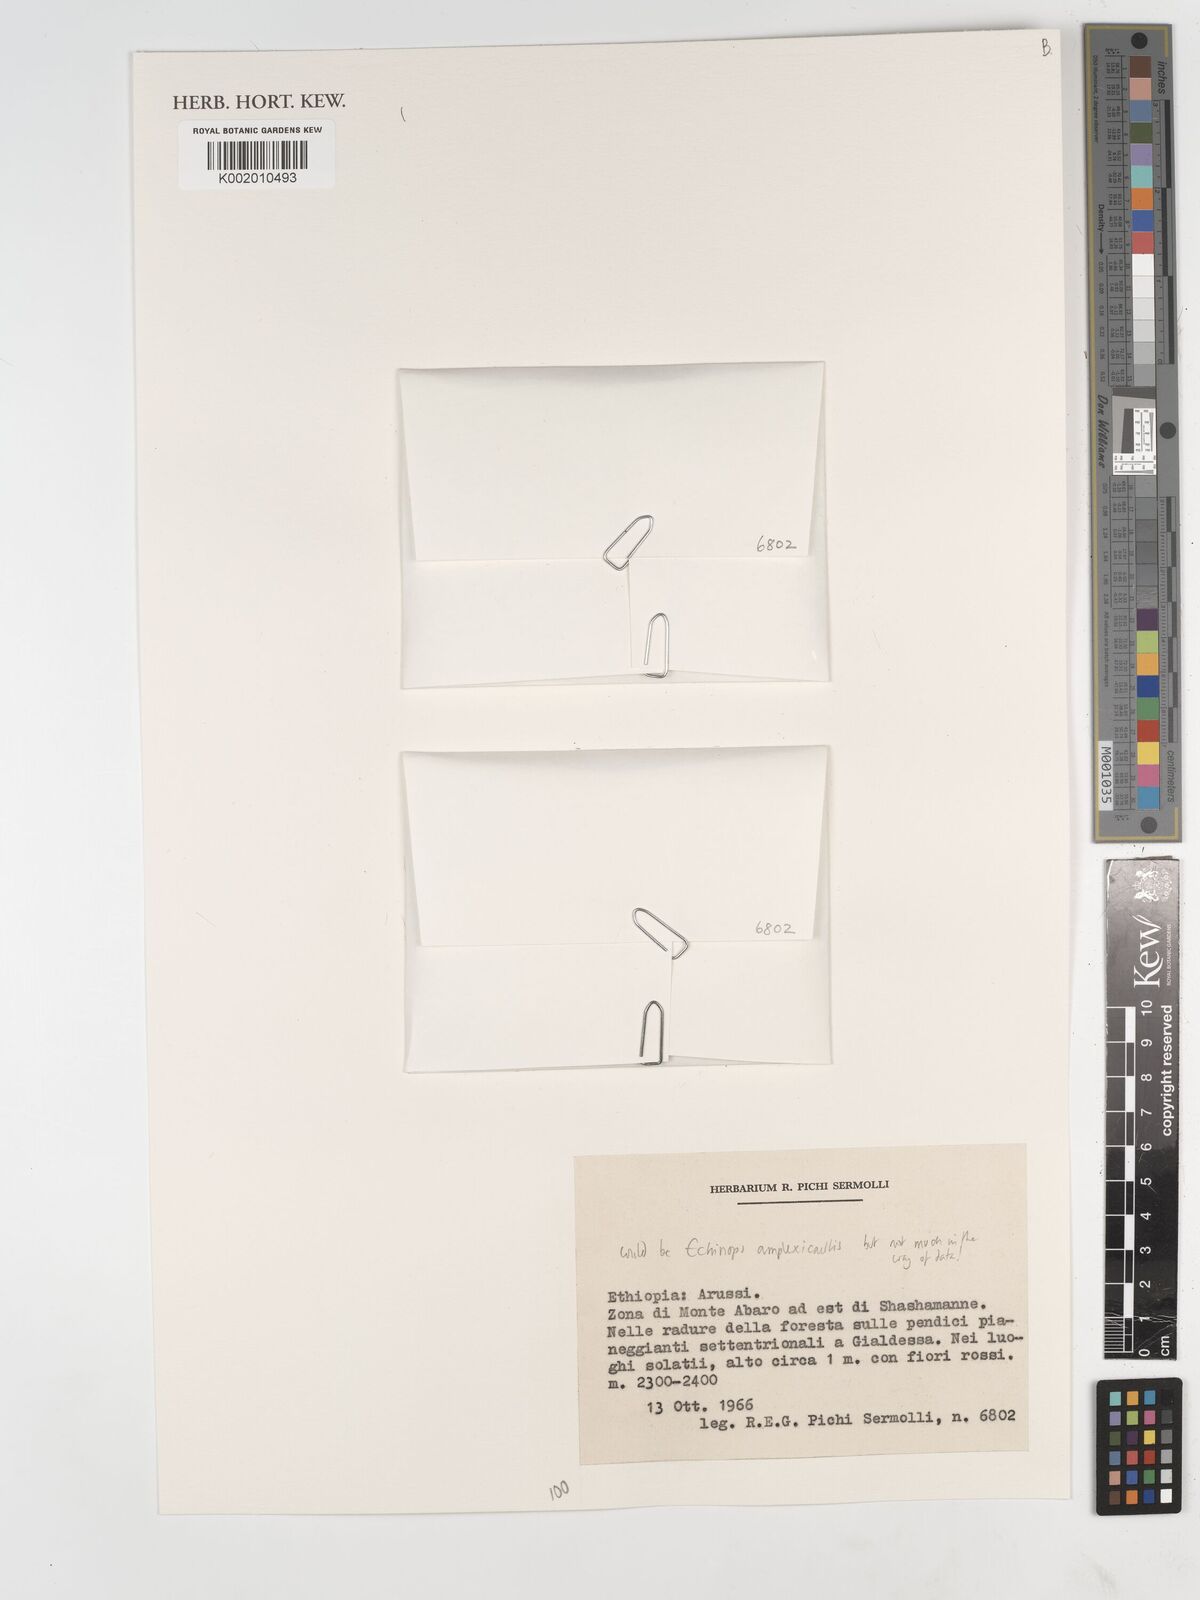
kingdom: Plantae
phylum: Tracheophyta
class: Magnoliopsida
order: Asterales
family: Asteraceae
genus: Echinops
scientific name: Echinops amplexicaulis
